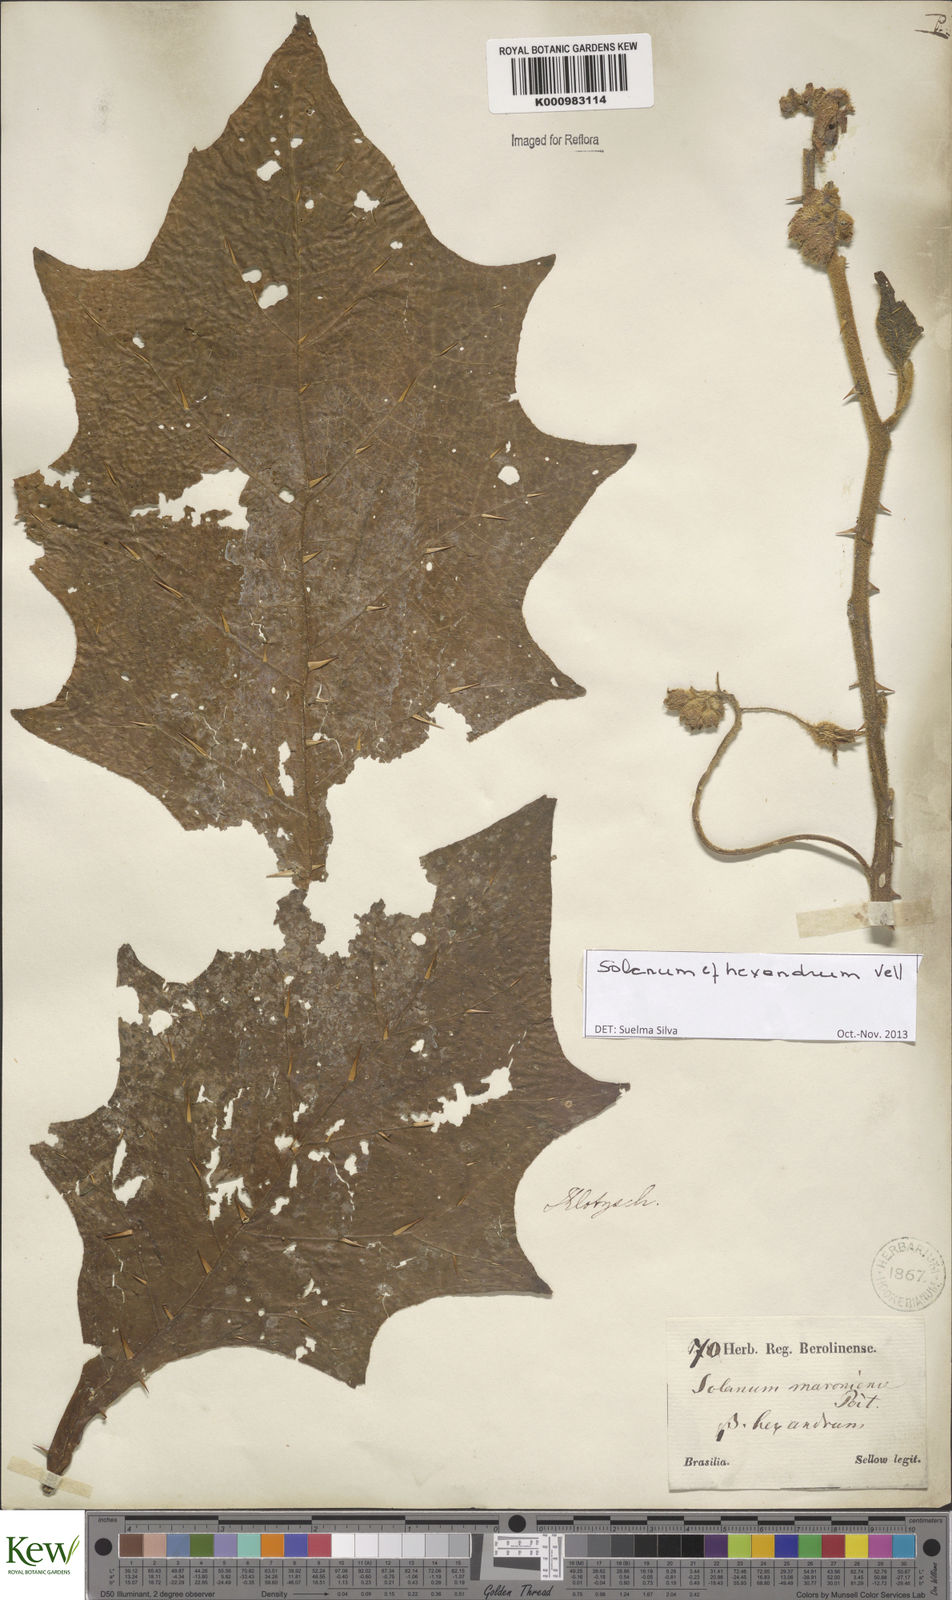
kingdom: Plantae
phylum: Tracheophyta
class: Magnoliopsida
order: Solanales
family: Solanaceae
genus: Solanum
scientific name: Solanum hexandrum
